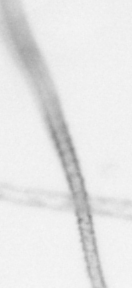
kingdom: Animalia
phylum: Arthropoda
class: Copepoda
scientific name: Copepoda
